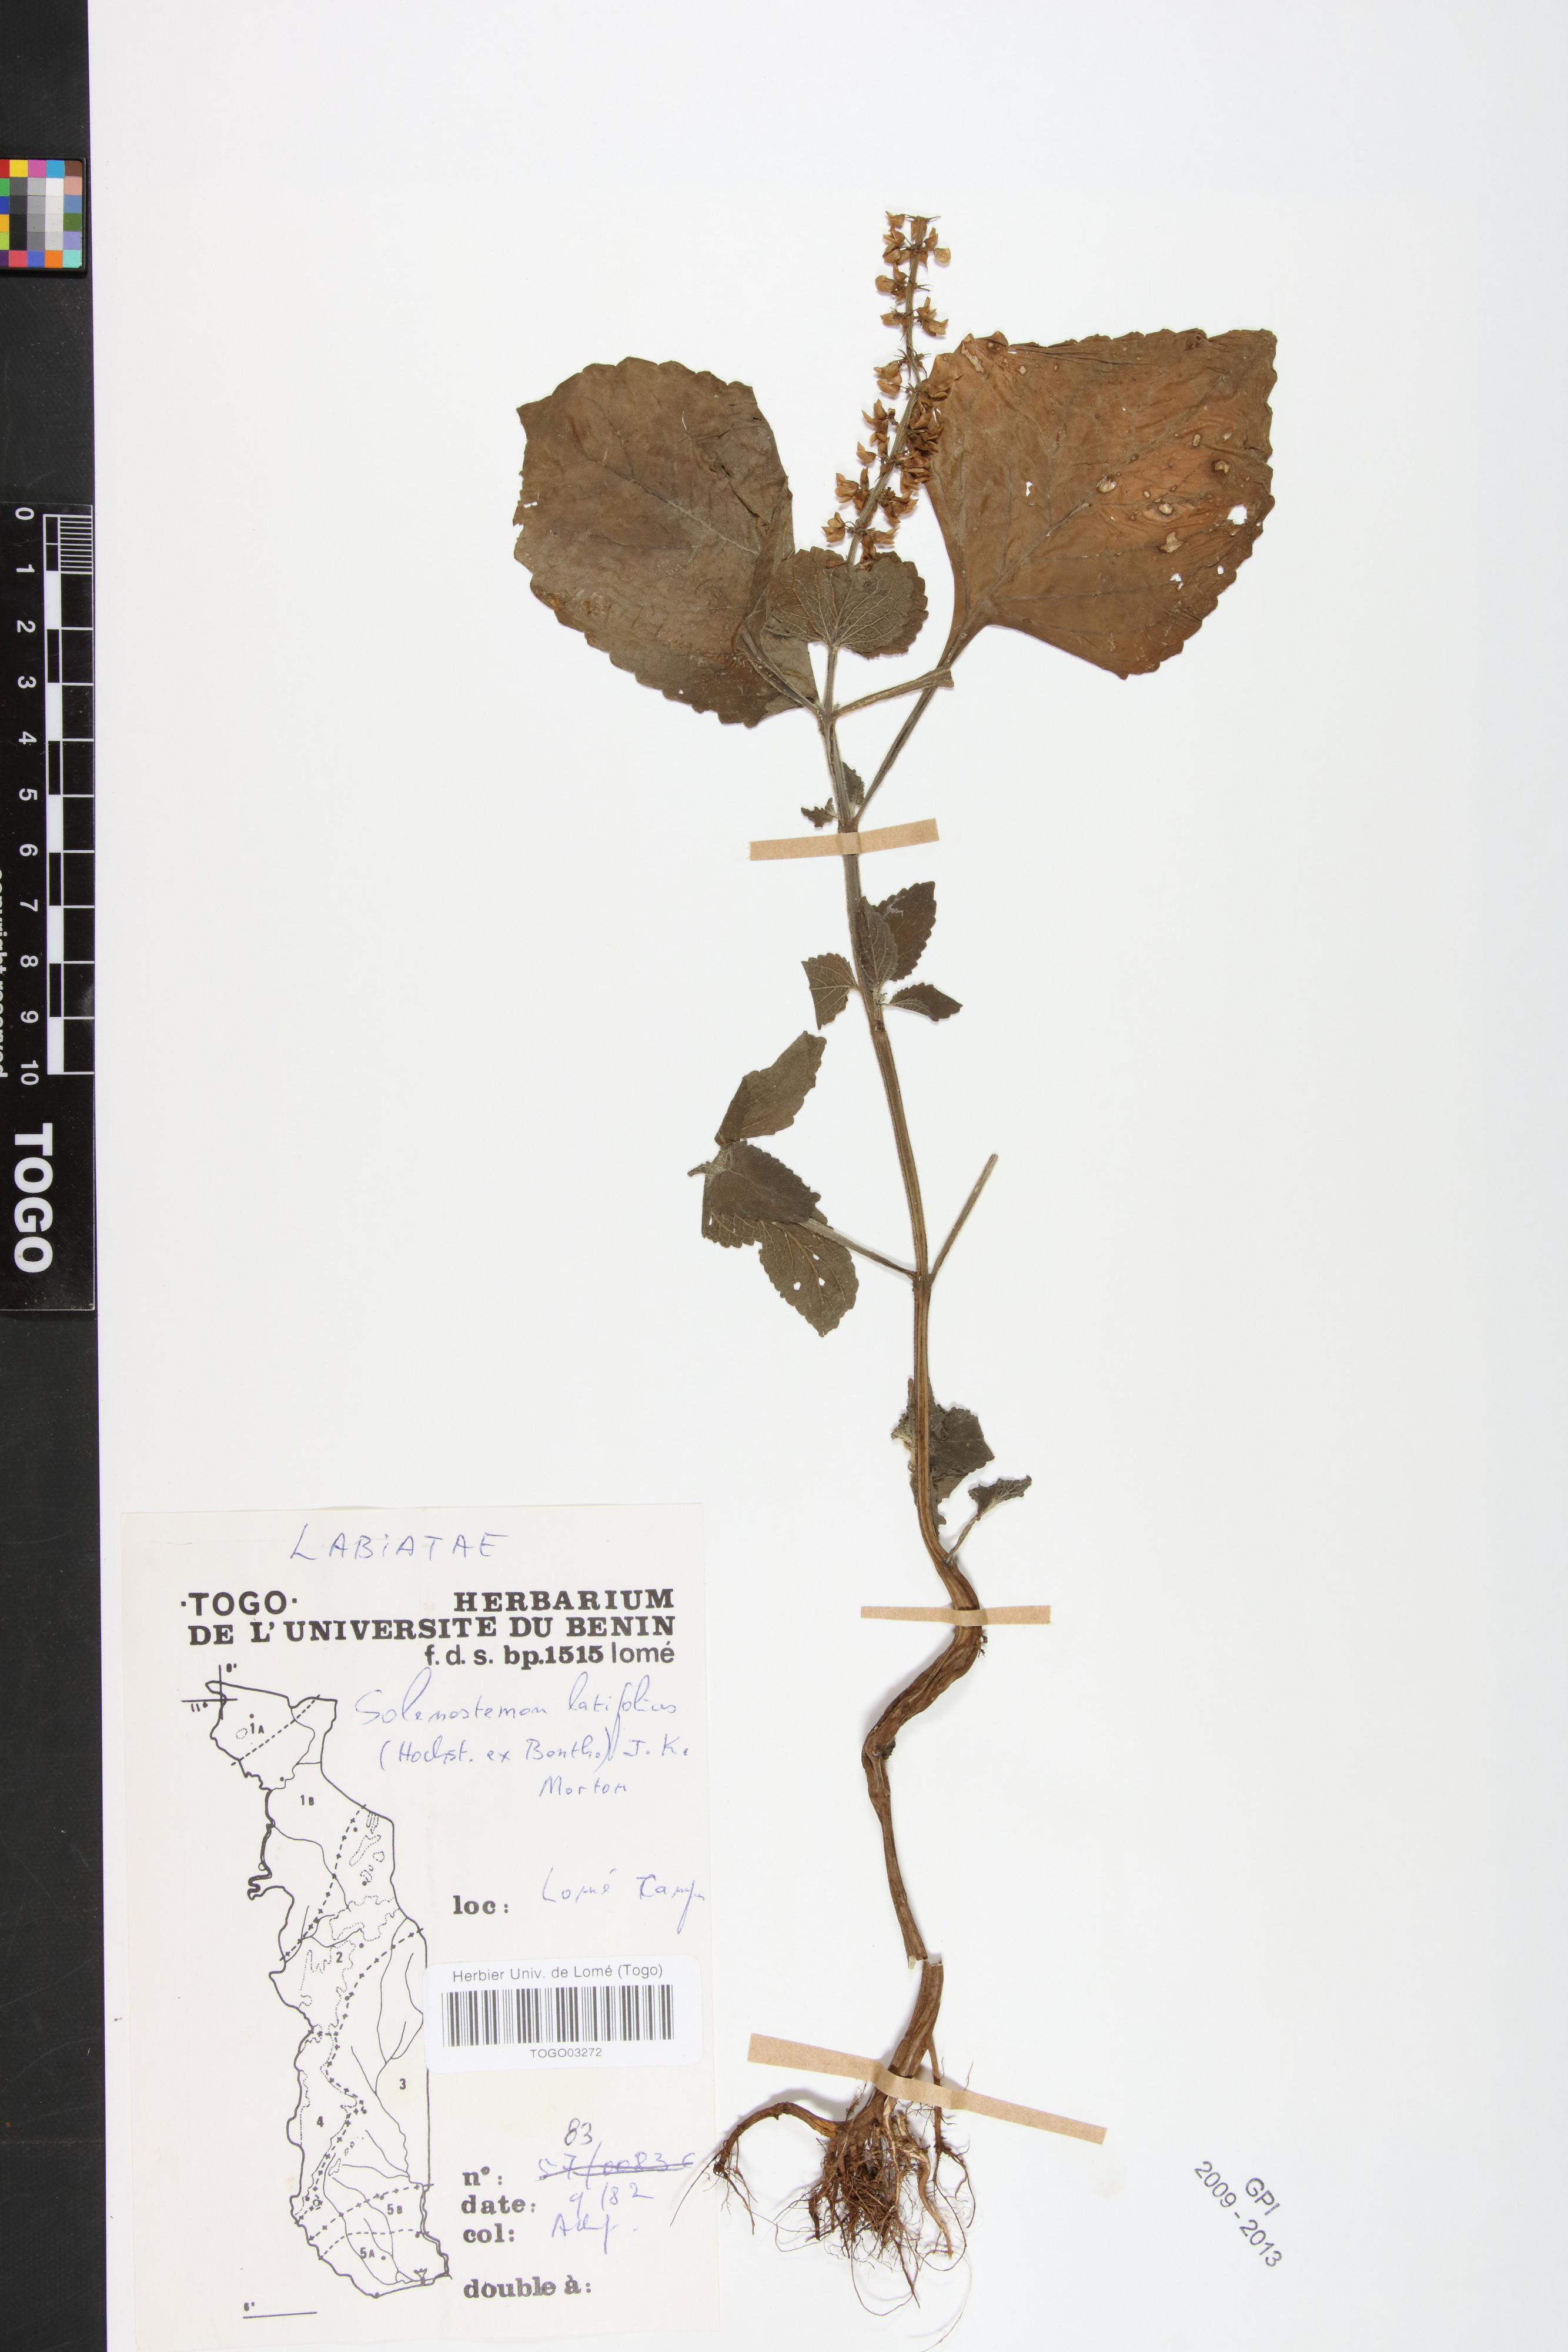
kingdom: Plantae
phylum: Tracheophyta
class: Magnoliopsida
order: Lamiales
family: Lamiaceae
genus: Coleus
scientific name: Coleus bojeri
